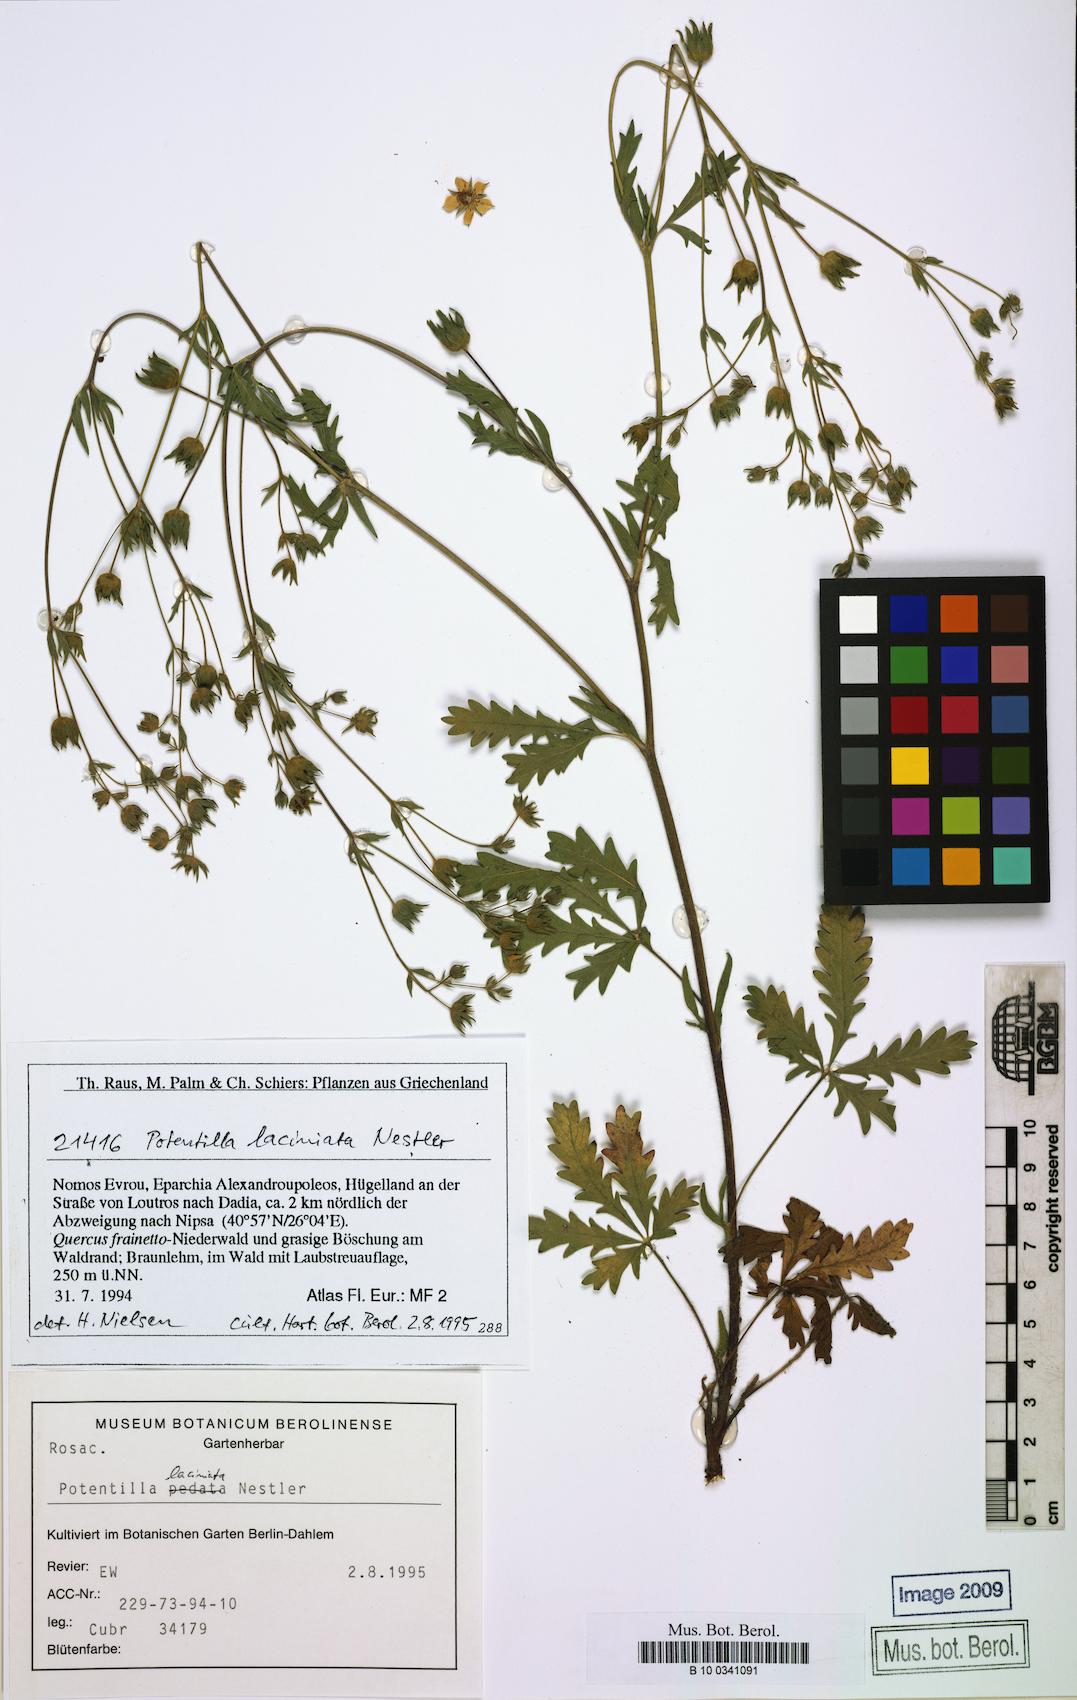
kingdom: Plantae
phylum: Tracheophyta
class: Magnoliopsida
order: Rosales
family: Rosaceae
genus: Potentilla
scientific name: Potentilla recta
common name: Sulphur cinquefoil
